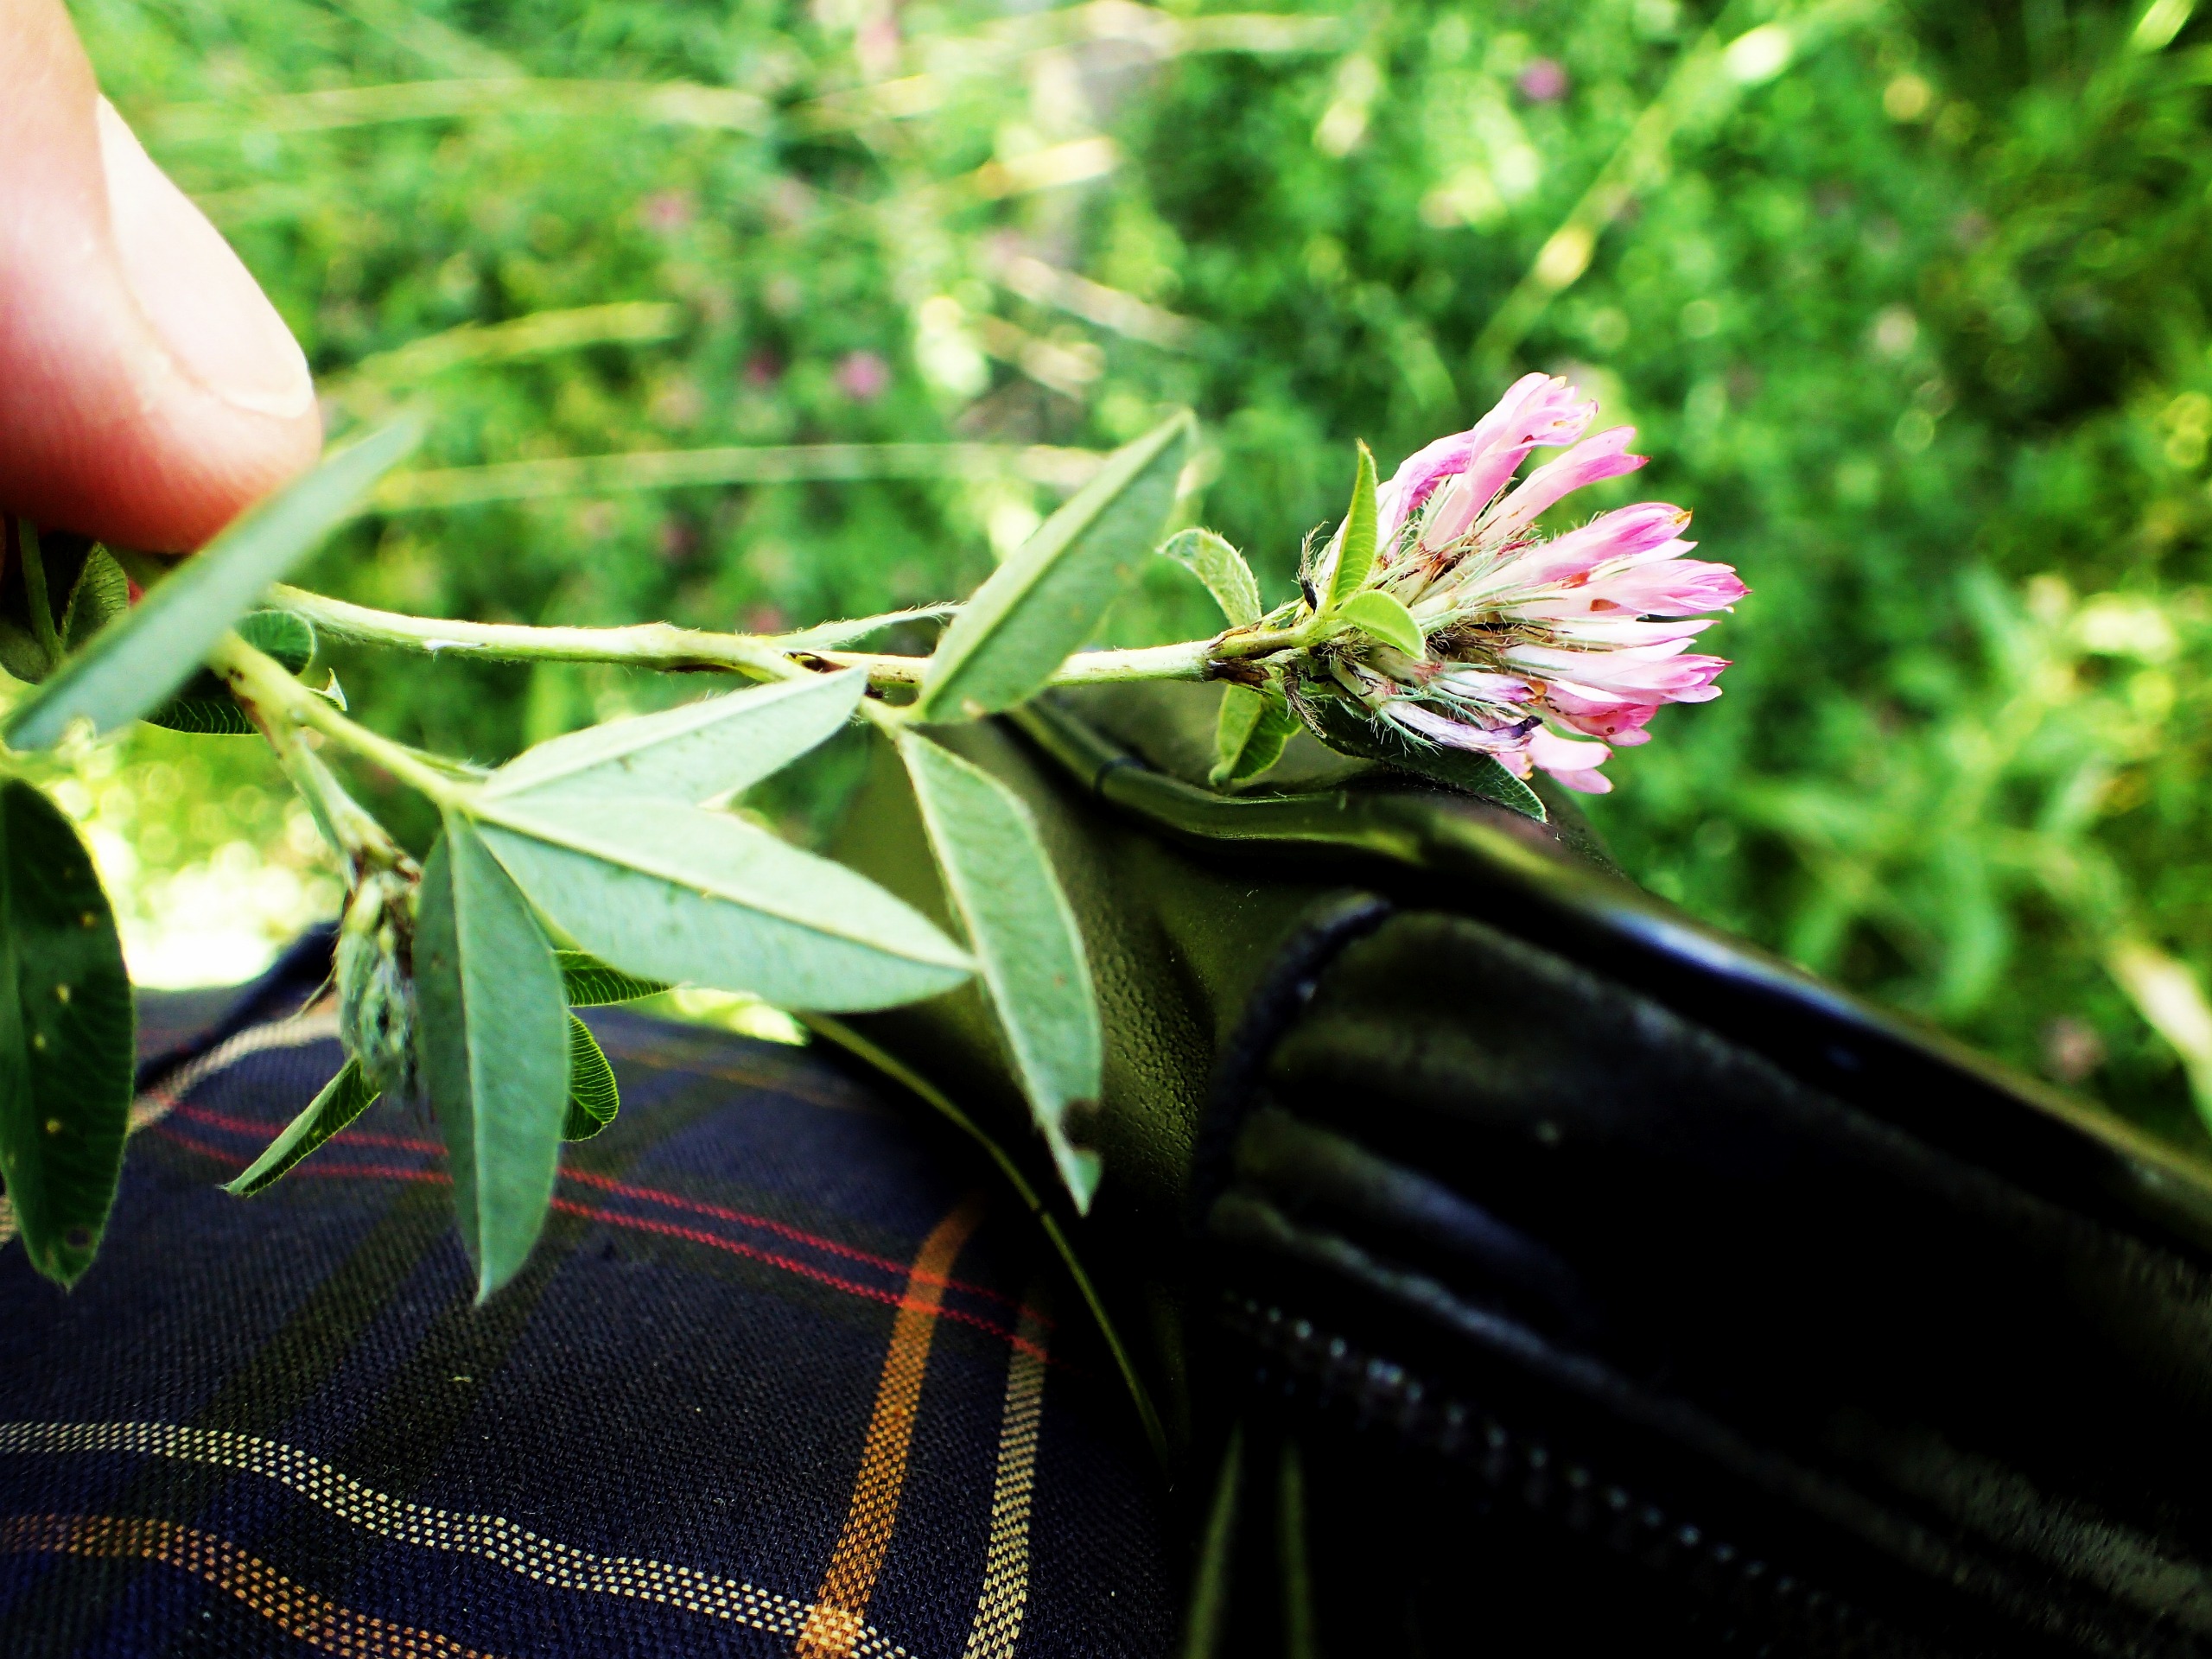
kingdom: Plantae
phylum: Tracheophyta
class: Magnoliopsida
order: Fabales
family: Fabaceae
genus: Trifolium
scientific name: Trifolium medium
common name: Bugtet kløver
